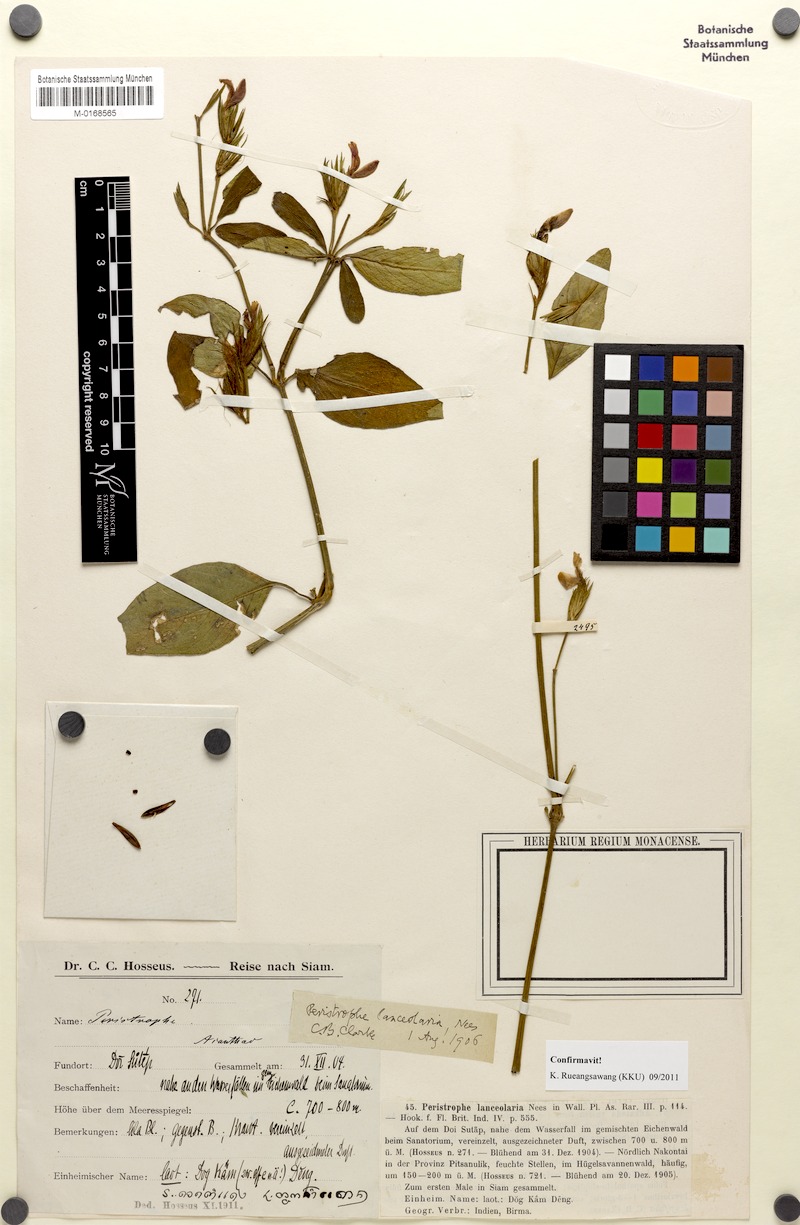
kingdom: Plantae
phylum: Tracheophyta
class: Magnoliopsida
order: Lamiales
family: Acanthaceae
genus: Dicliptera
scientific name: Dicliptera lanceolaria
